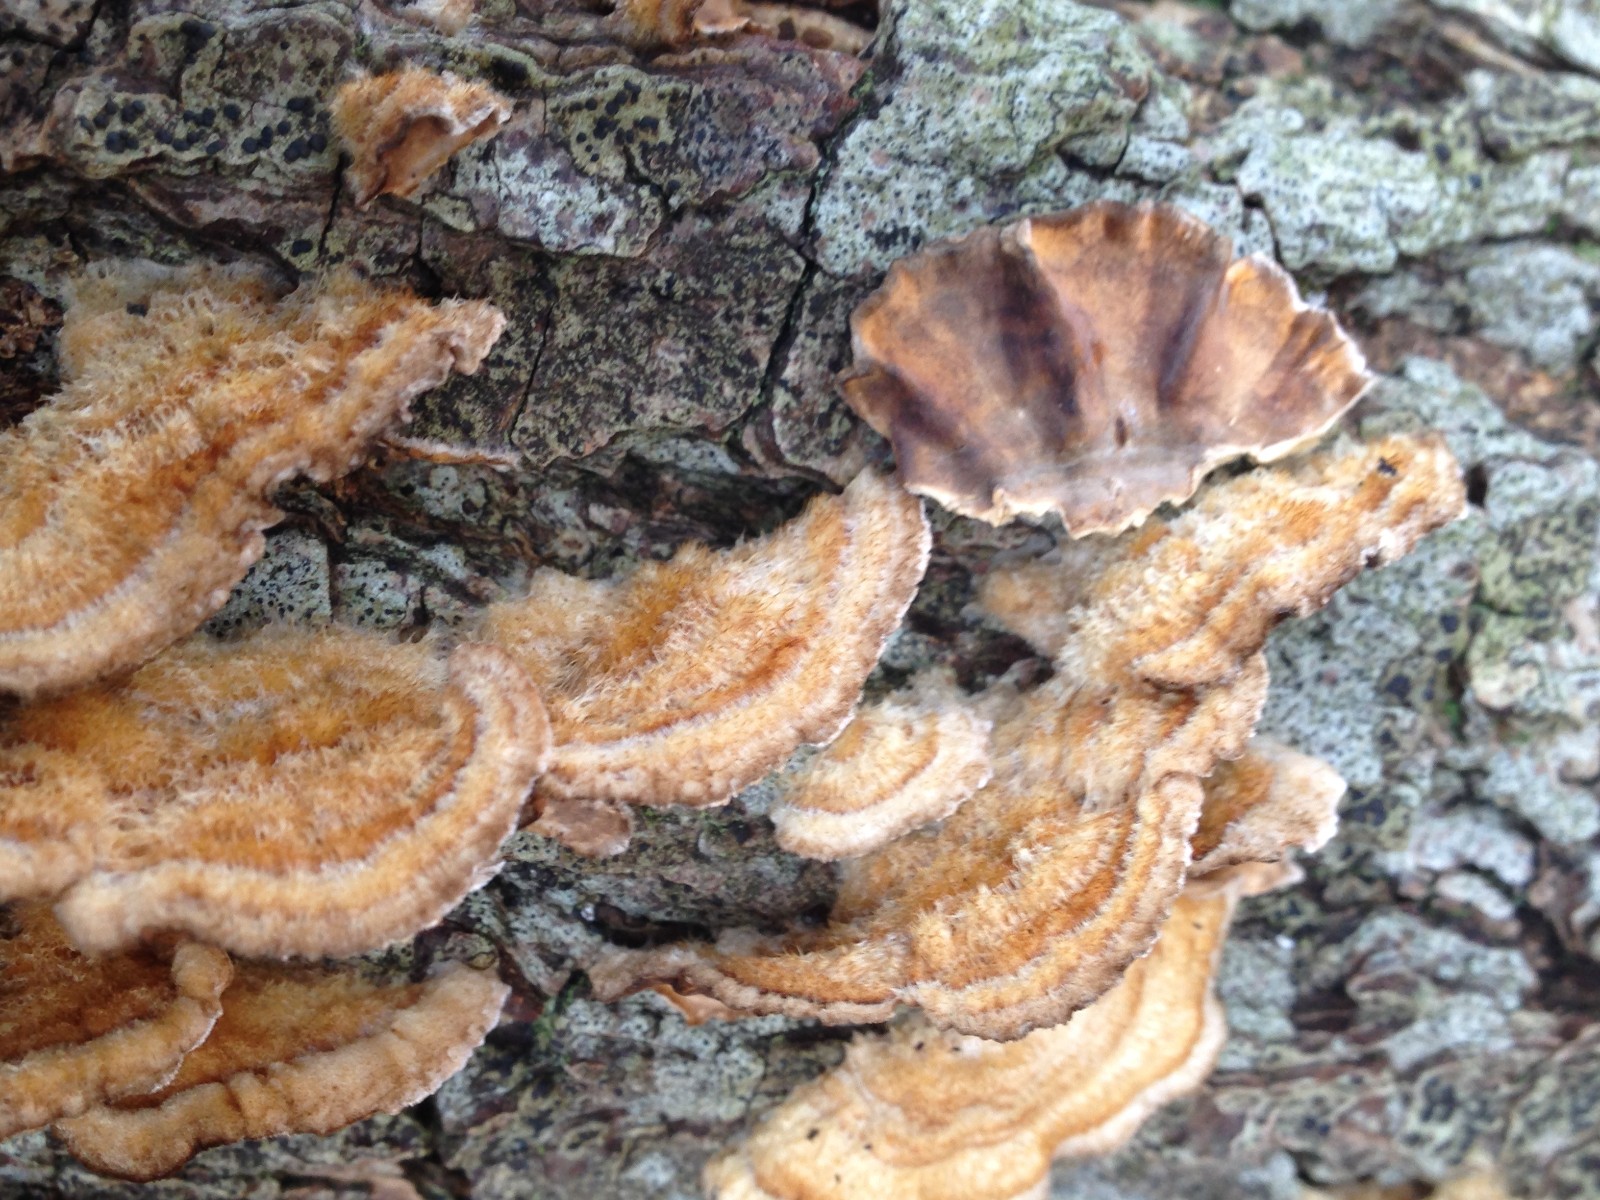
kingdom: Fungi
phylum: Basidiomycota
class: Agaricomycetes
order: Russulales
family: Stereaceae
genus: Stereum
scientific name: Stereum hirsutum
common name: håret lædersvamp
